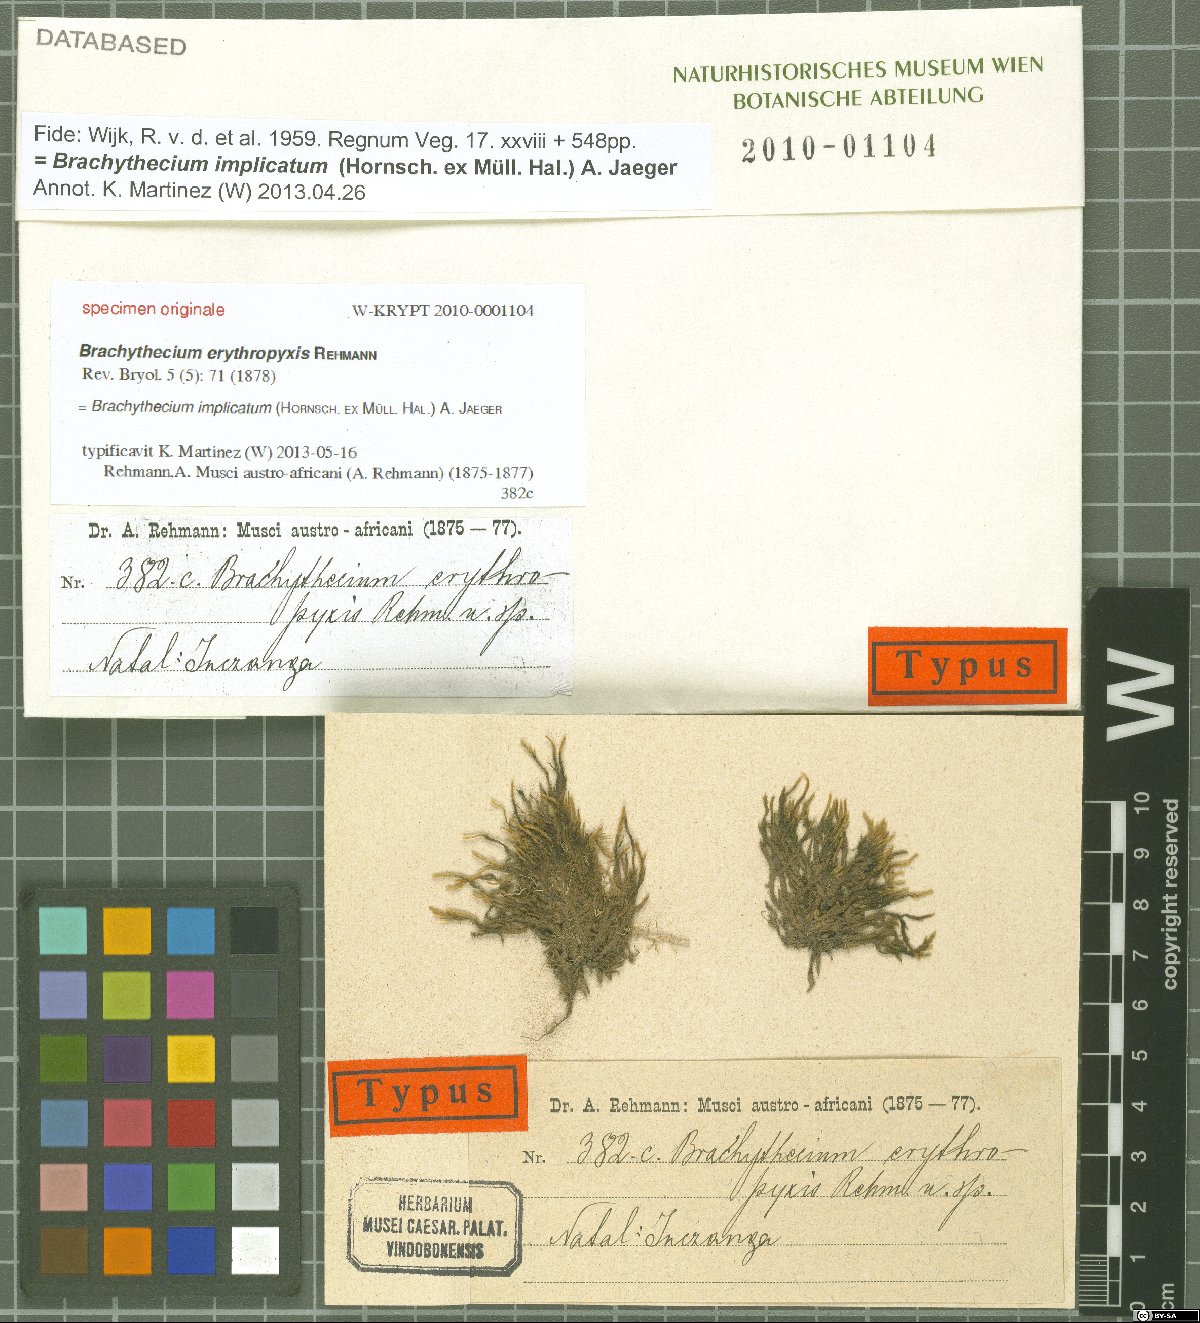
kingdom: Plantae
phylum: Bryophyta
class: Bryopsida
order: Hypnales
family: Brachytheciaceae
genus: Brachythecium
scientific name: Brachythecium ruderale
